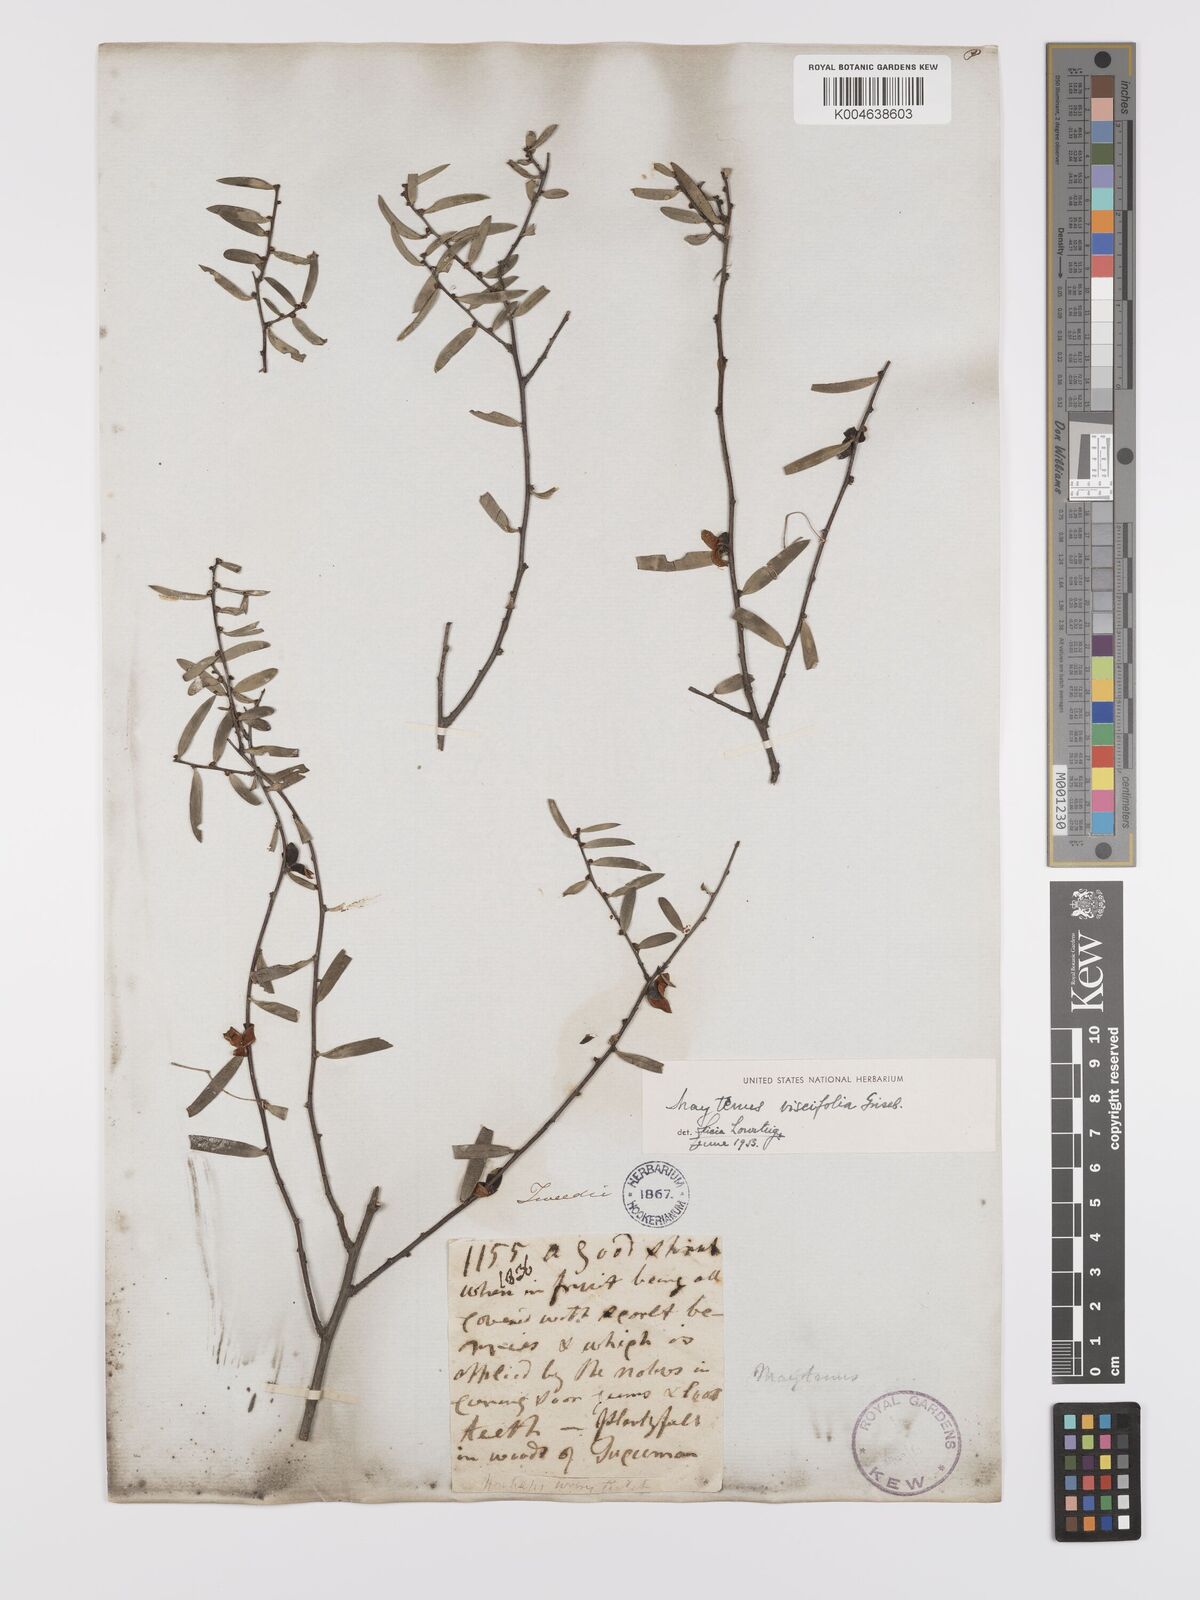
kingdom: Plantae
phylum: Tracheophyta
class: Magnoliopsida
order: Celastrales
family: Celastraceae
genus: Tricerma
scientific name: Tricerma viscifolium
